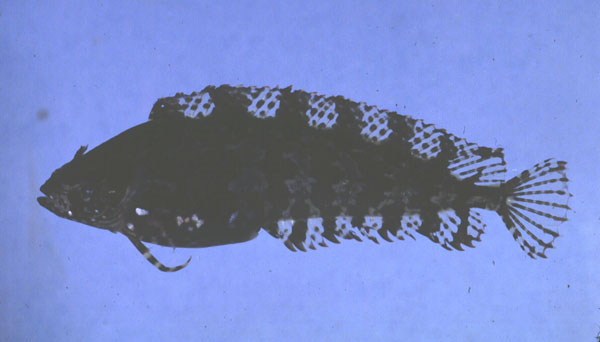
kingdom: Animalia
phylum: Chordata
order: Perciformes
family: Clinidae
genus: Springeratus
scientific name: Springeratus xanthosoma
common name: Indonesia weedfish
